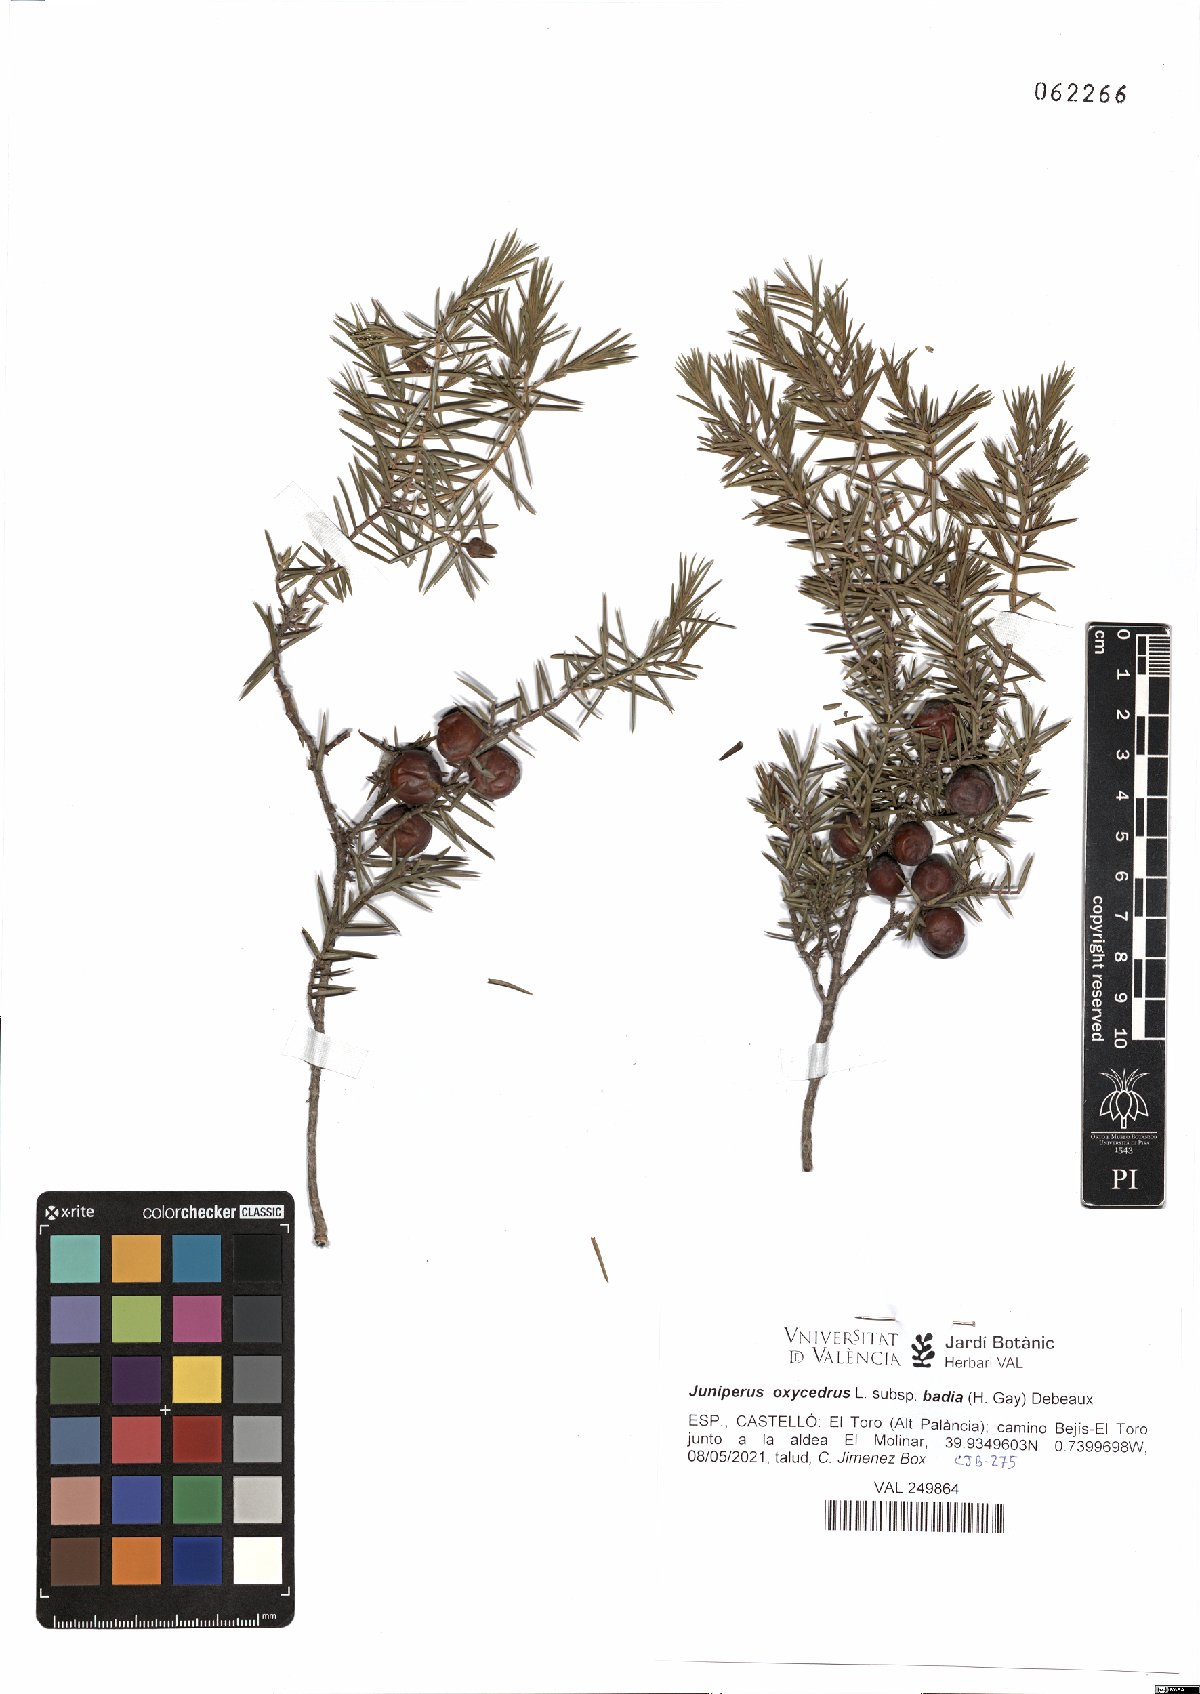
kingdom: Plantae
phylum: Tracheophyta
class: Pinopsida
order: Pinales
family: Cupressaceae
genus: Juniperus
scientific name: Juniperus oxycedrus
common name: Prickly juniper
